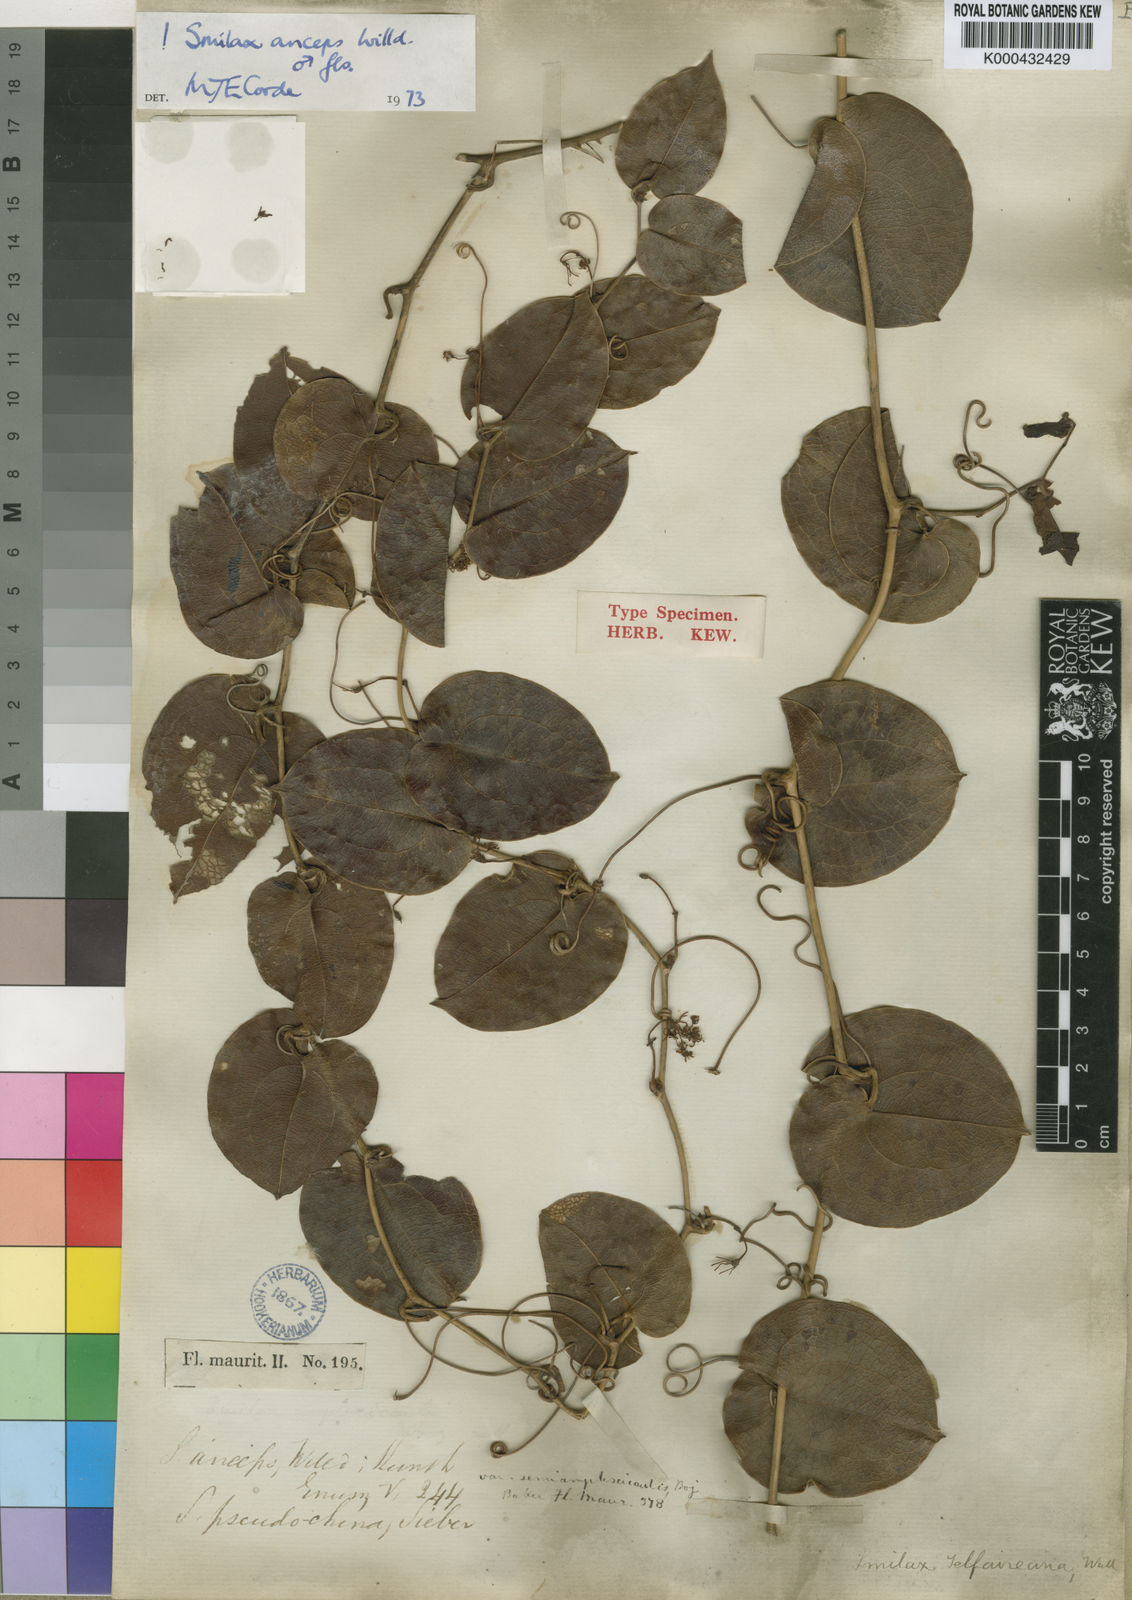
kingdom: Plantae
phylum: Tracheophyta
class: Liliopsida
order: Liliales
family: Smilacaceae
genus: Smilax
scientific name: Smilax anceps
